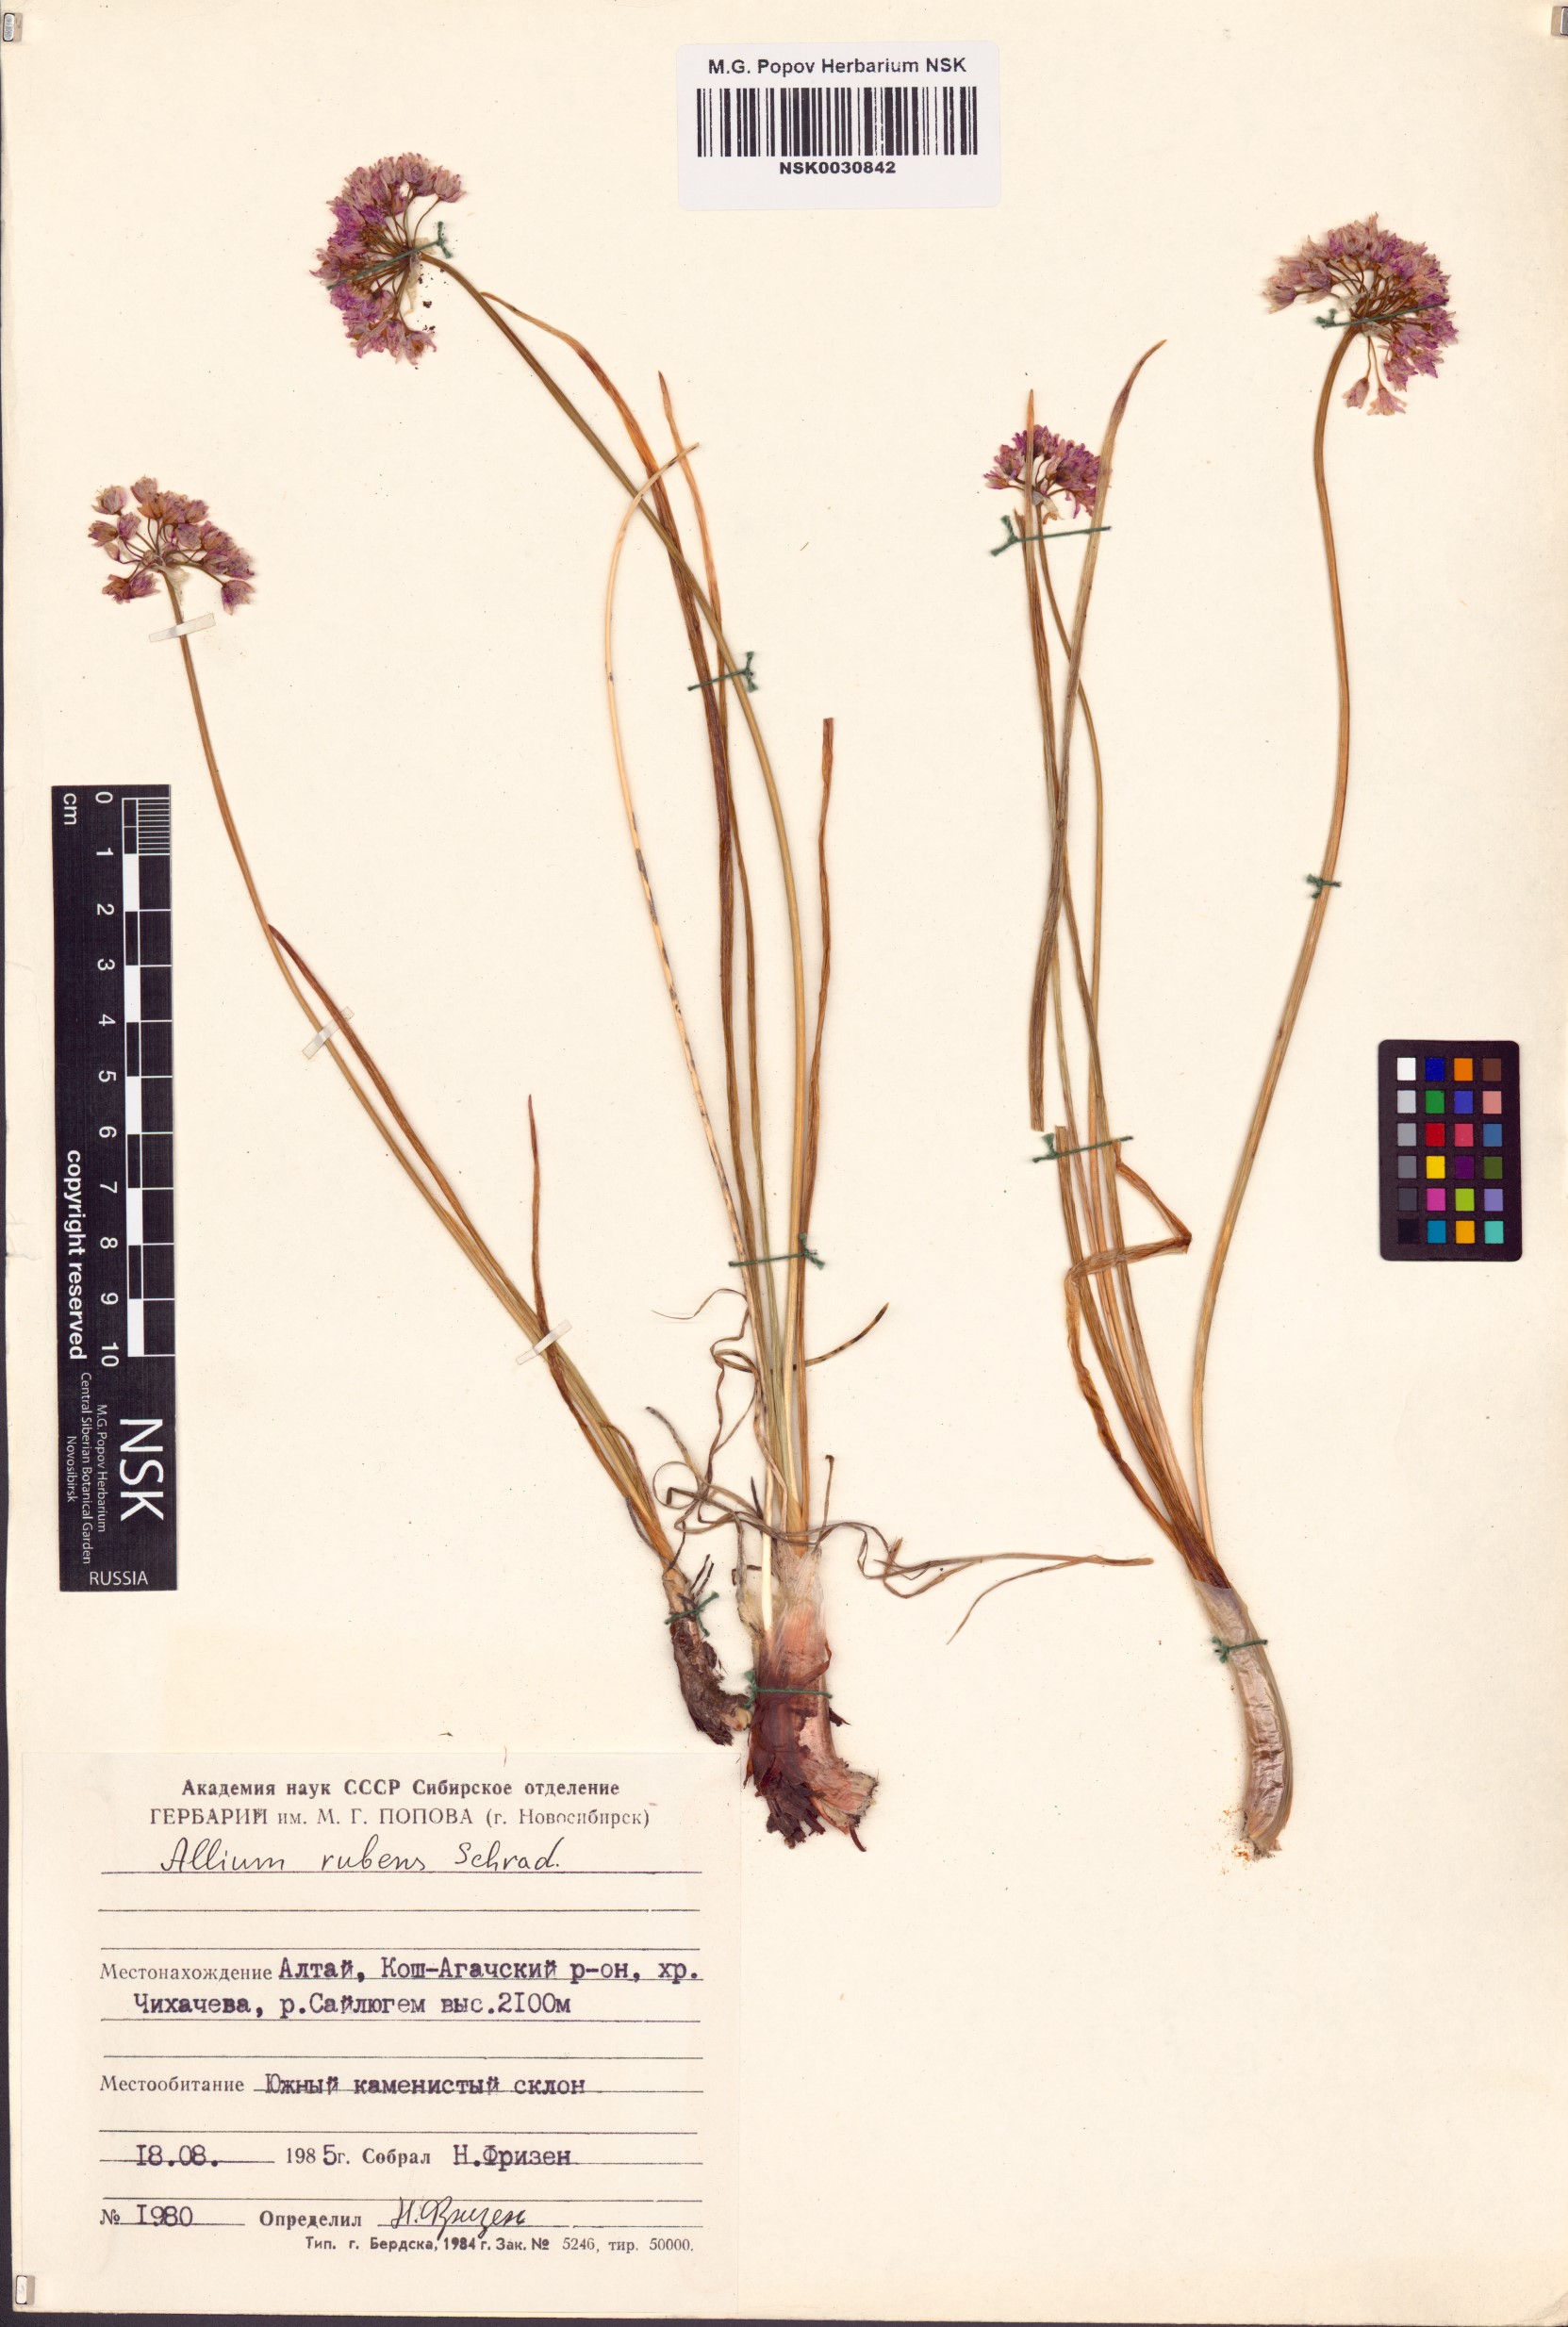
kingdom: Plantae
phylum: Tracheophyta
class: Liliopsida
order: Asparagales
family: Amaryllidaceae
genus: Allium
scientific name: Allium rubens
